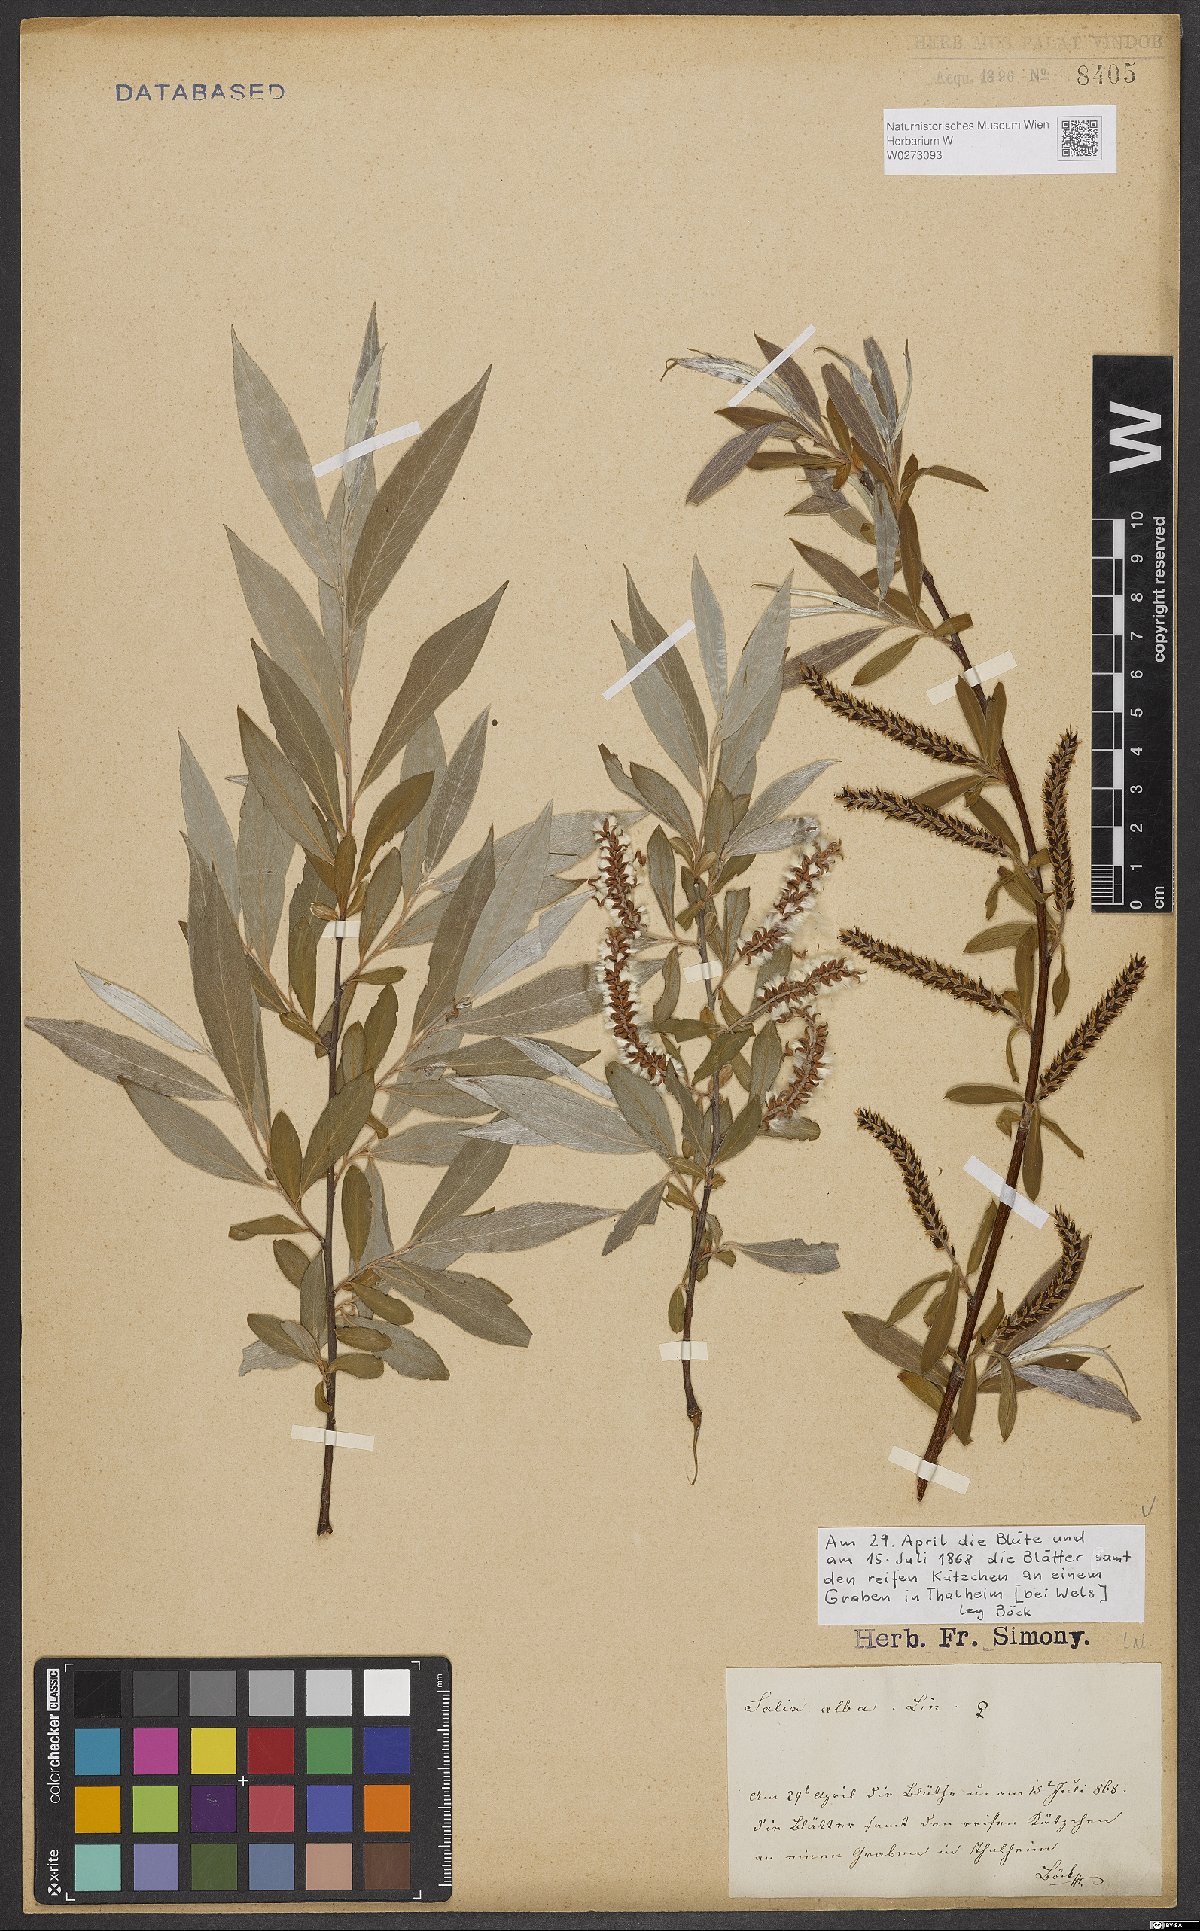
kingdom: Plantae
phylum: Tracheophyta
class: Magnoliopsida
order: Malpighiales
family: Salicaceae
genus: Salix
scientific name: Salix alba
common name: White willow
